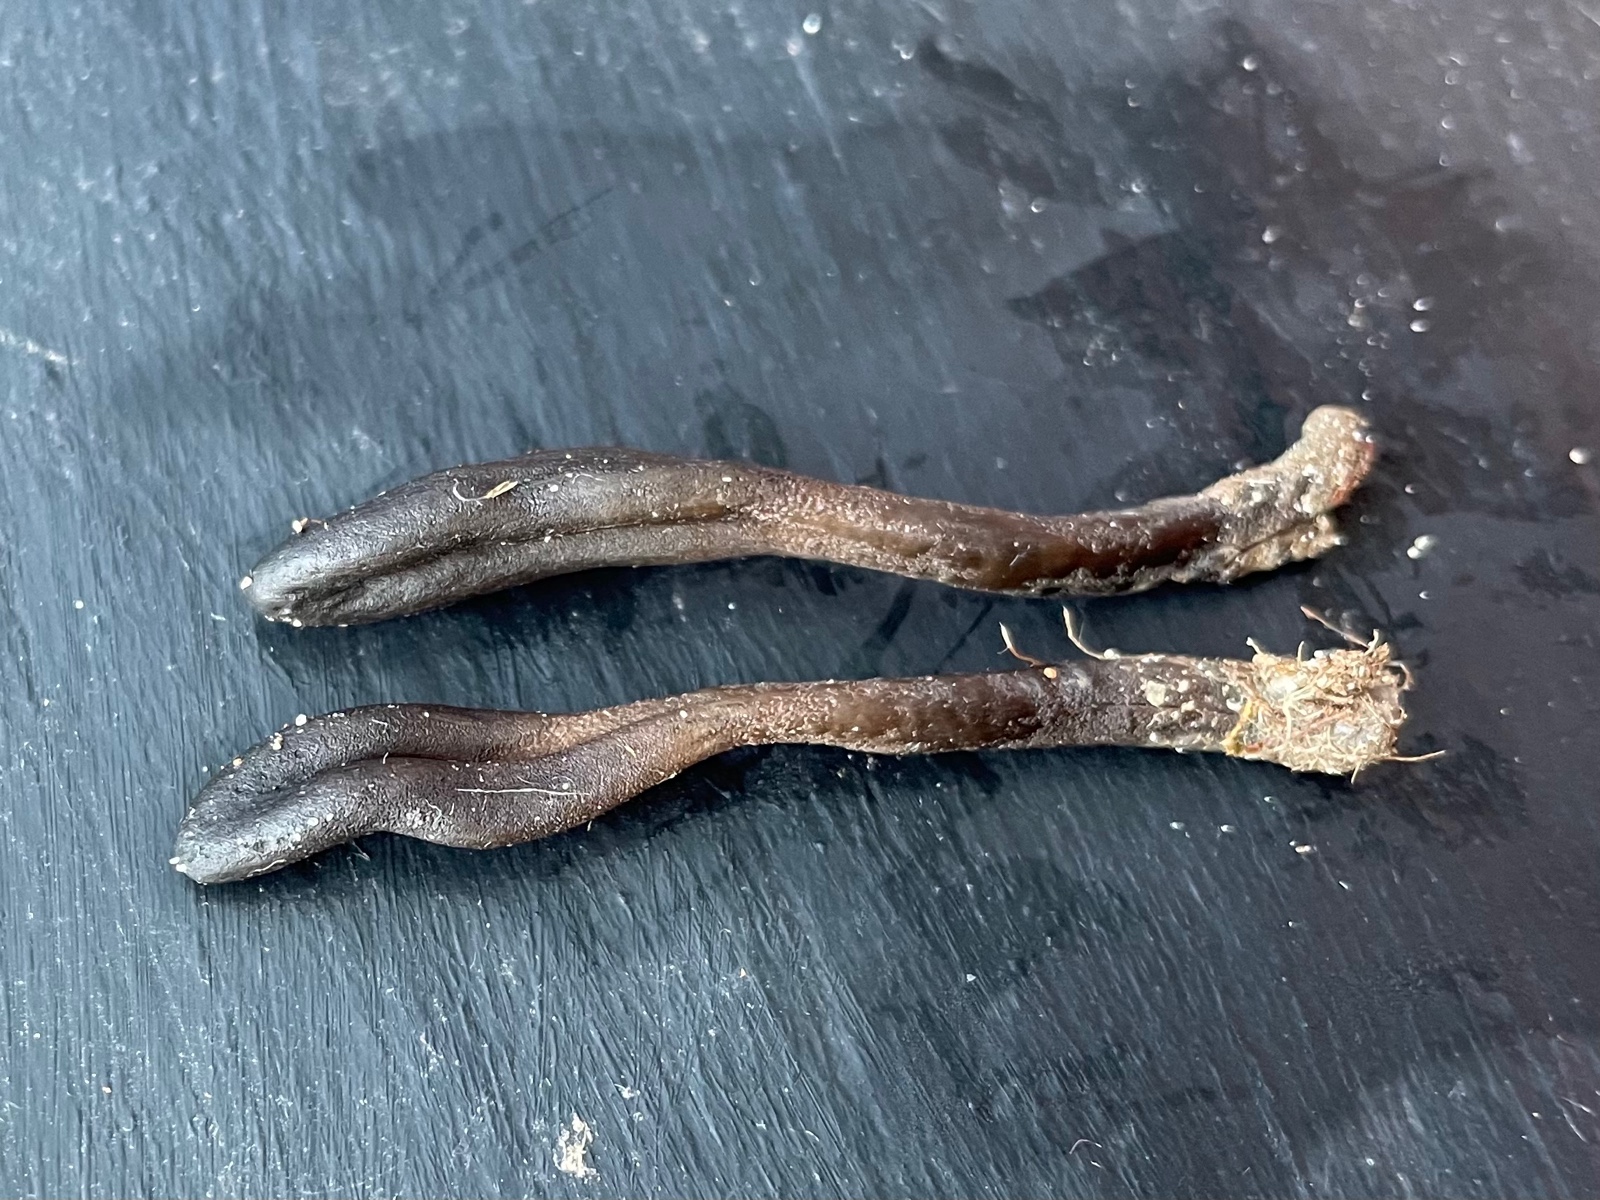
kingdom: Fungi
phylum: Ascomycota
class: Geoglossomycetes
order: Geoglossales
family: Geoglossaceae
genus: Geoglossum
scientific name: Geoglossum
